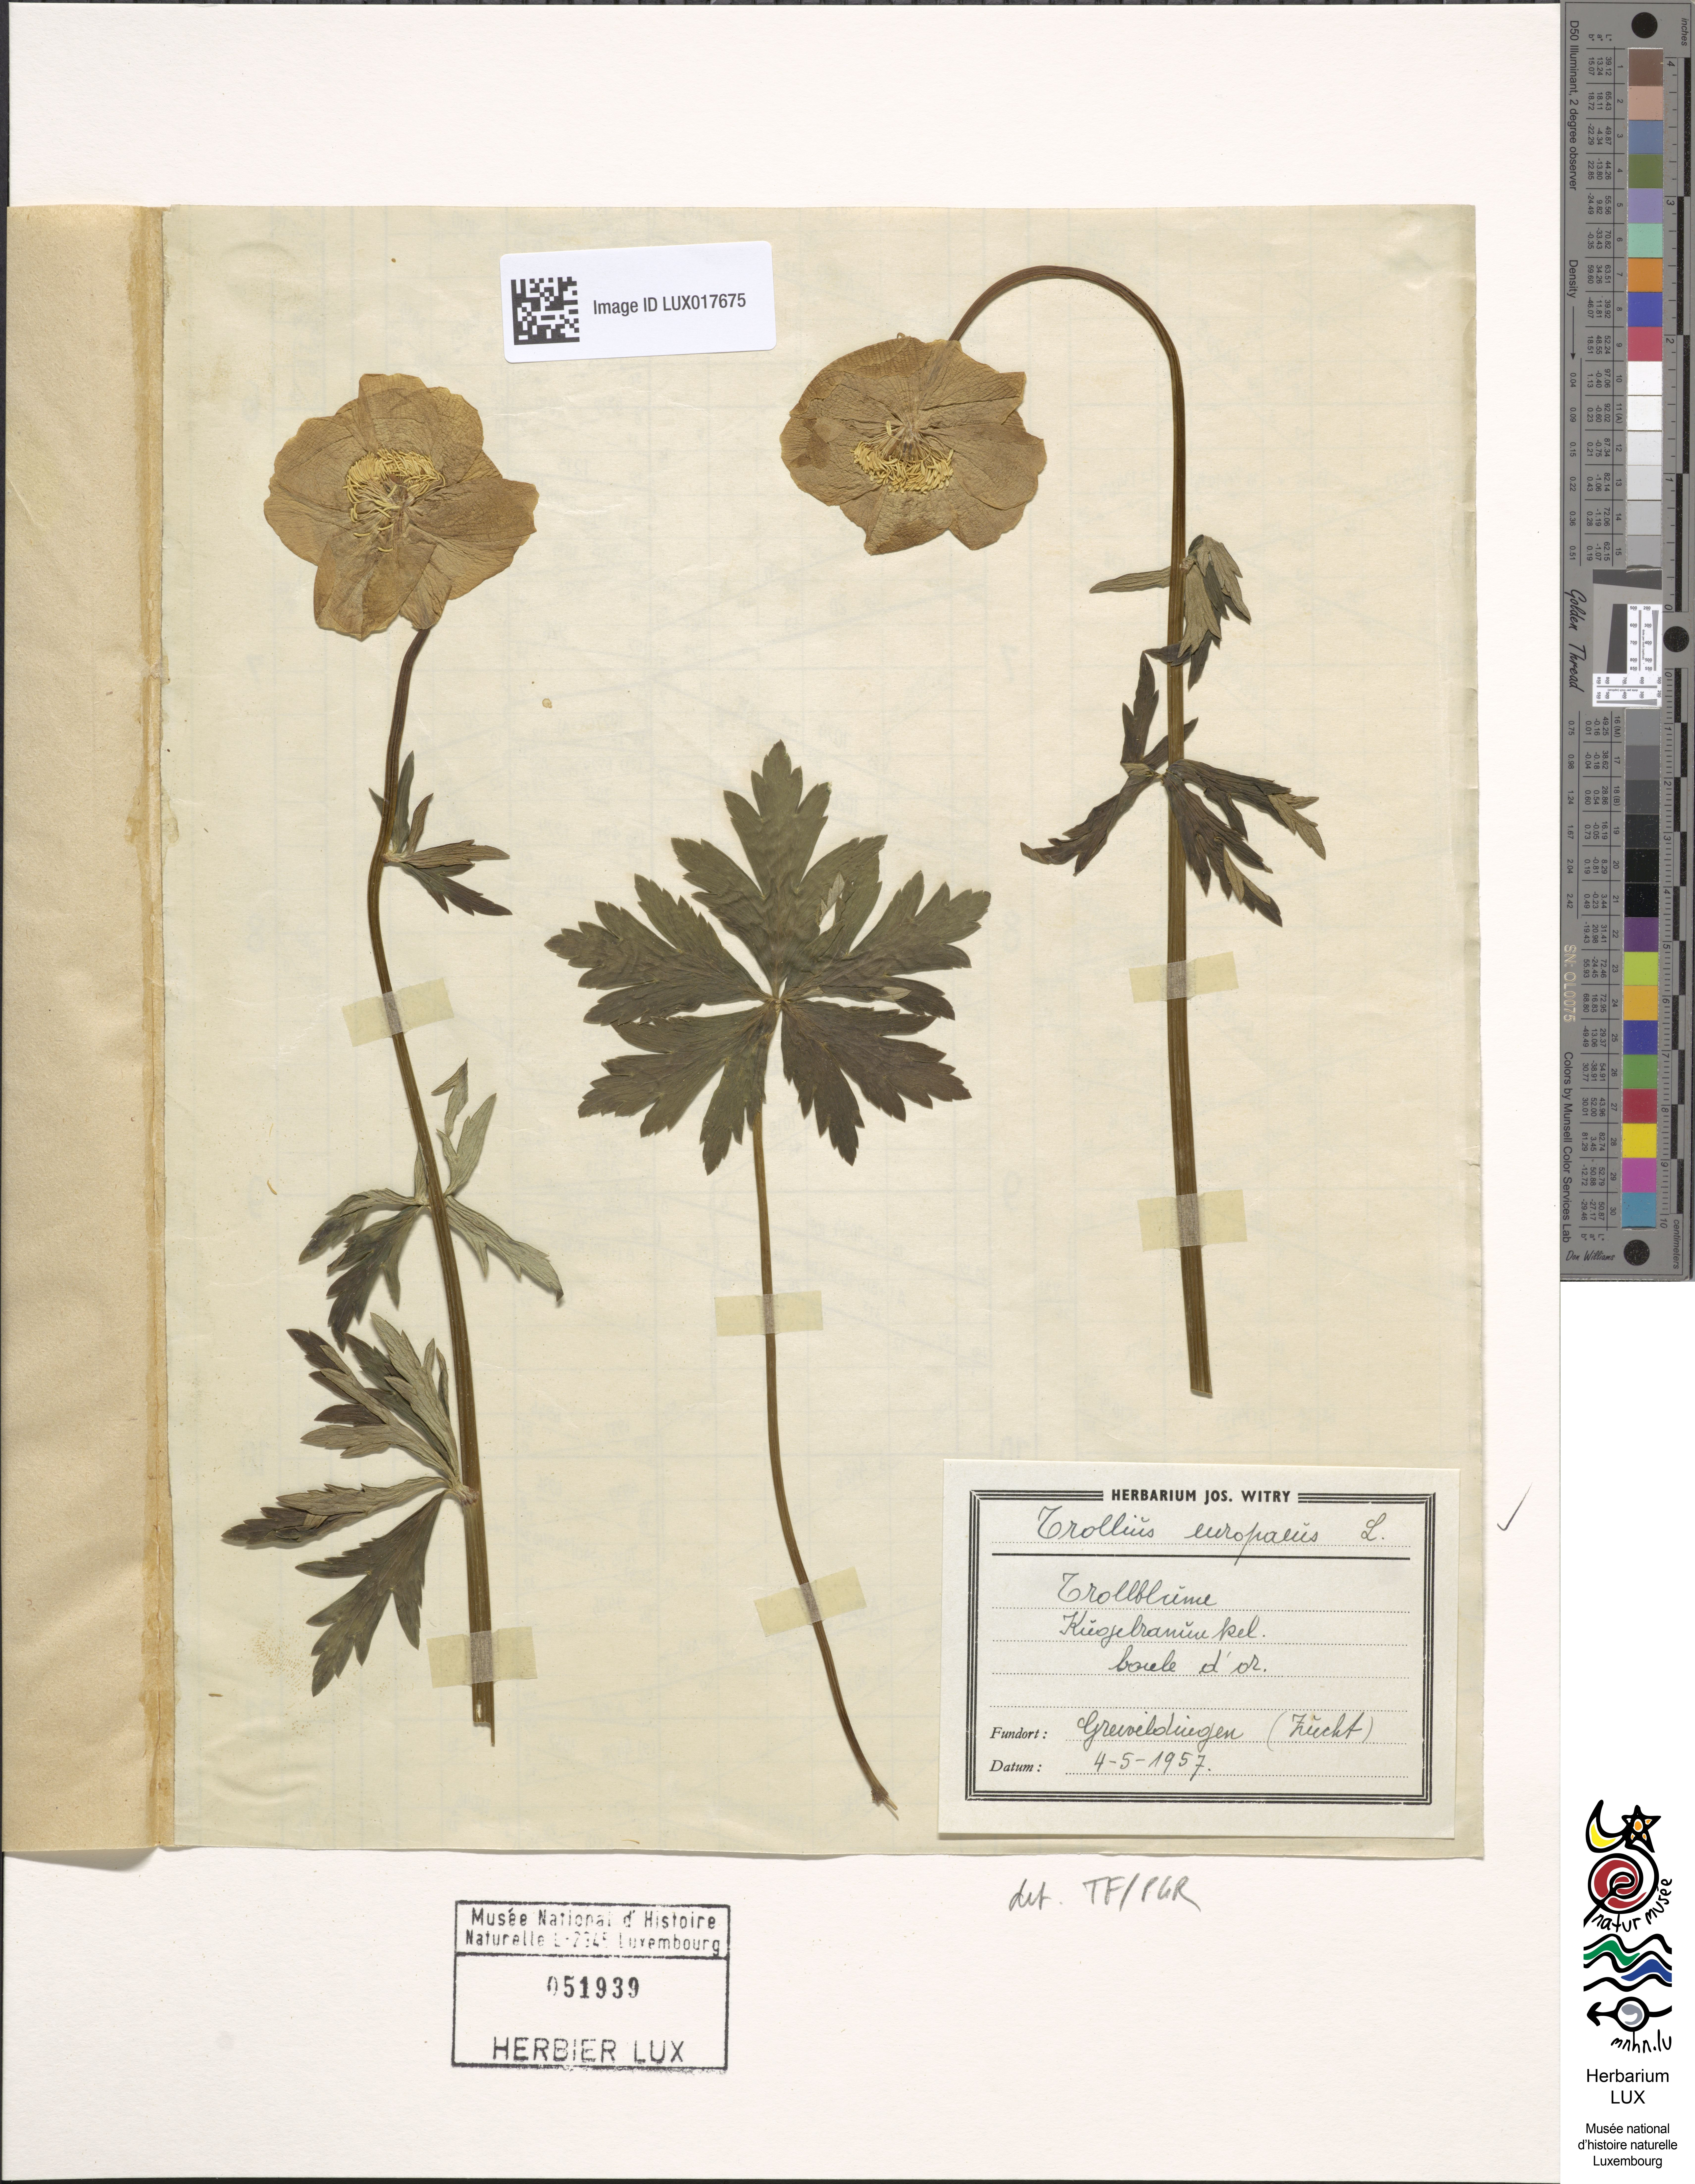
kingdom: Plantae
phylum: Tracheophyta
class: Magnoliopsida
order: Ranunculales
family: Ranunculaceae
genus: Trollius
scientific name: Trollius europaeus
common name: European globeflower
